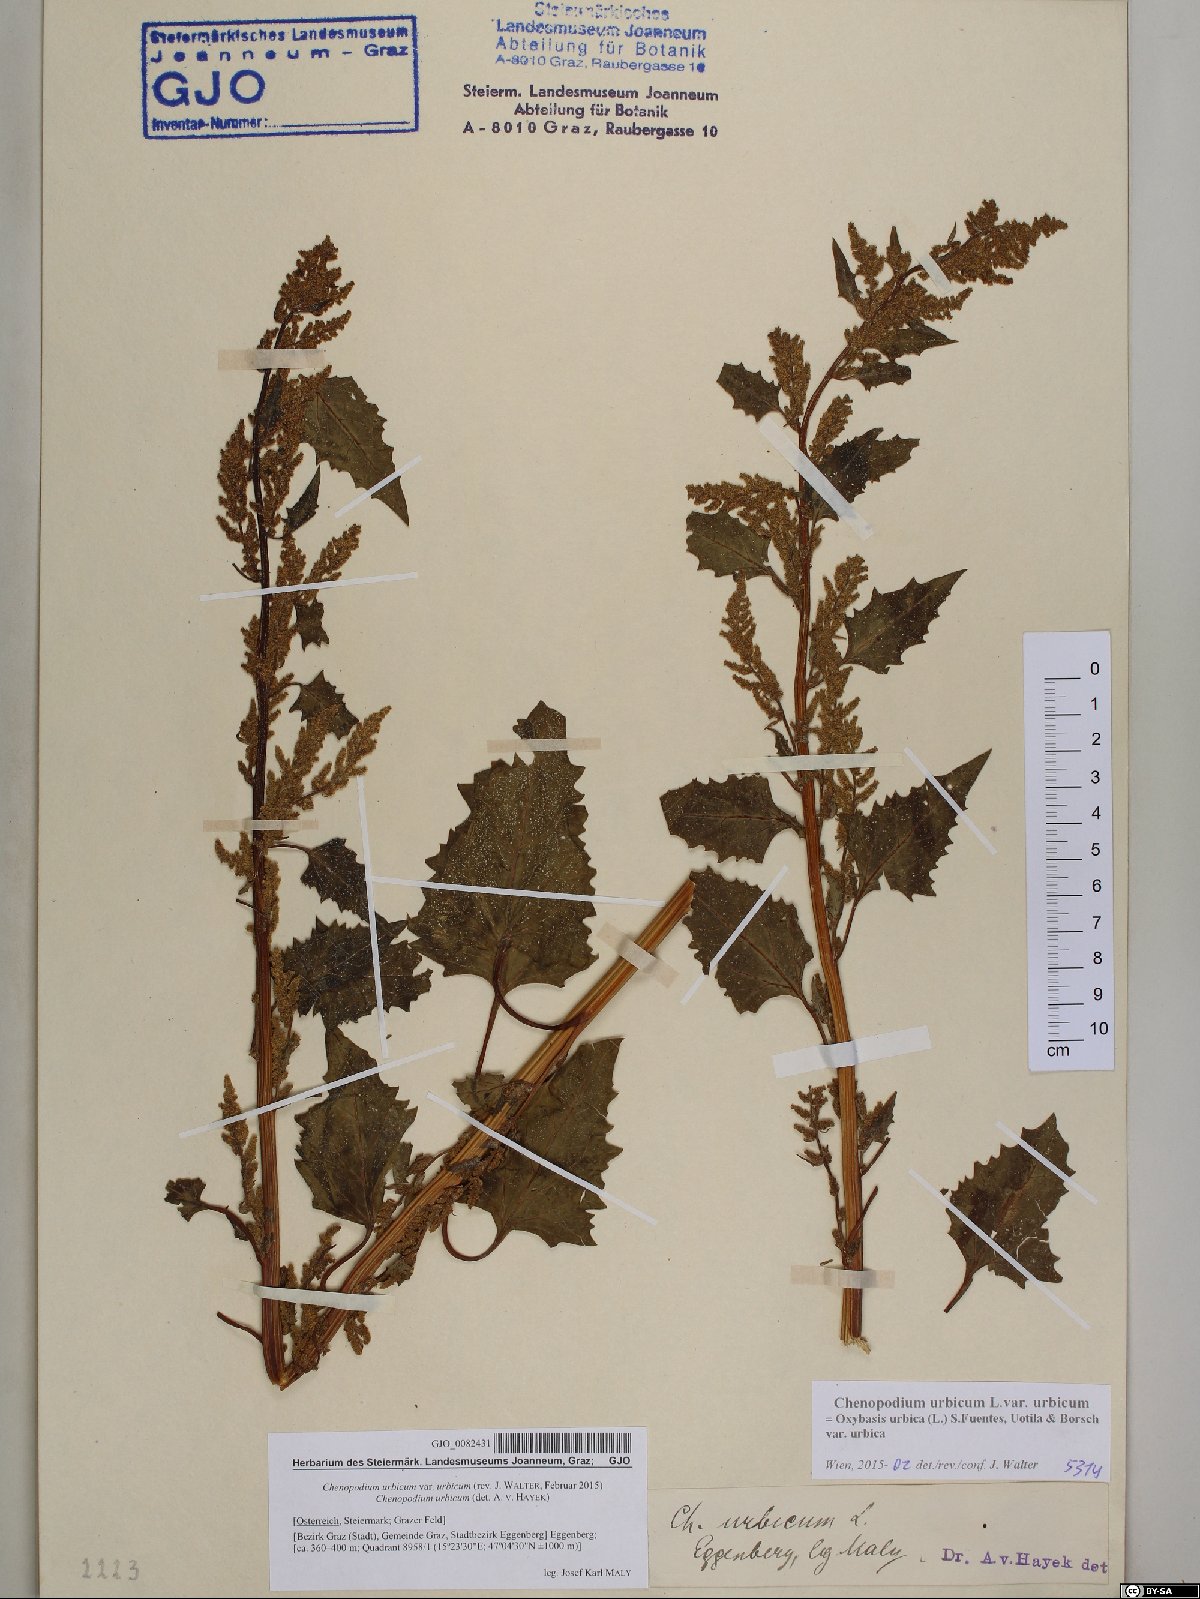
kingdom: Plantae
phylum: Tracheophyta
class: Magnoliopsida
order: Caryophyllales
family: Amaranthaceae
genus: Oxybasis
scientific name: Oxybasis urbica
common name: City goosefoot
